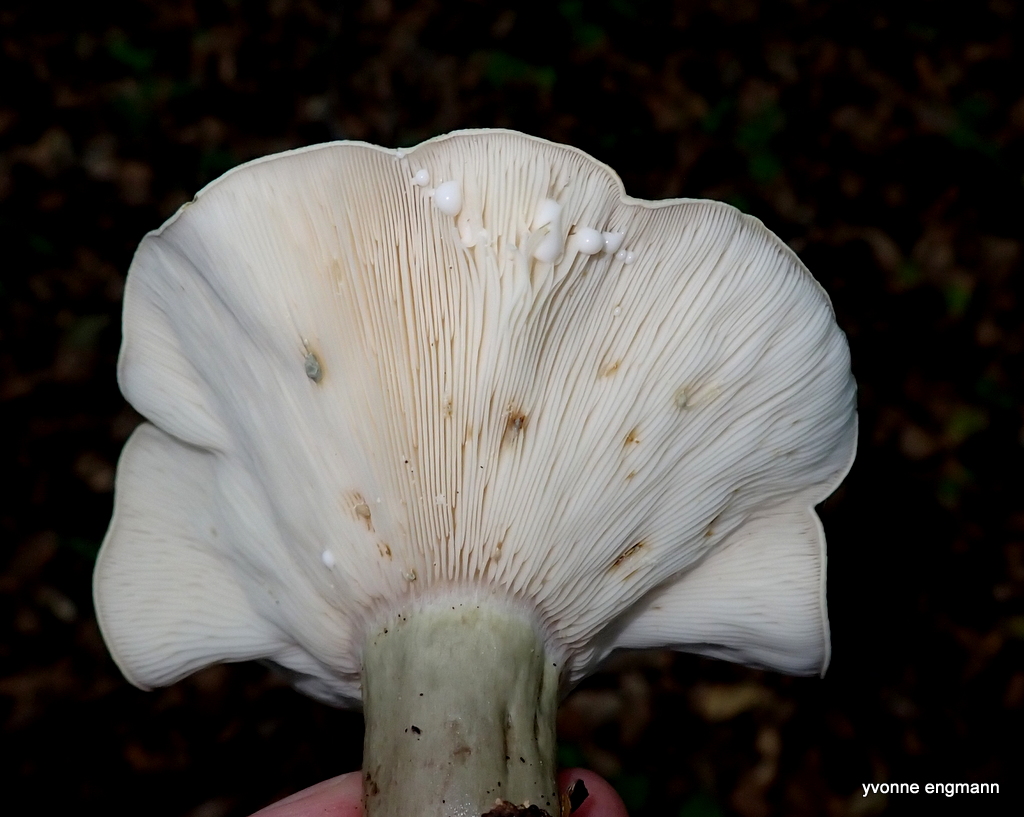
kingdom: Fungi
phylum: Basidiomycota
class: Agaricomycetes
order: Russulales
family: Russulaceae
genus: Lactarius
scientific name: Lactarius blennius
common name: dråbeplettet mælkehat
